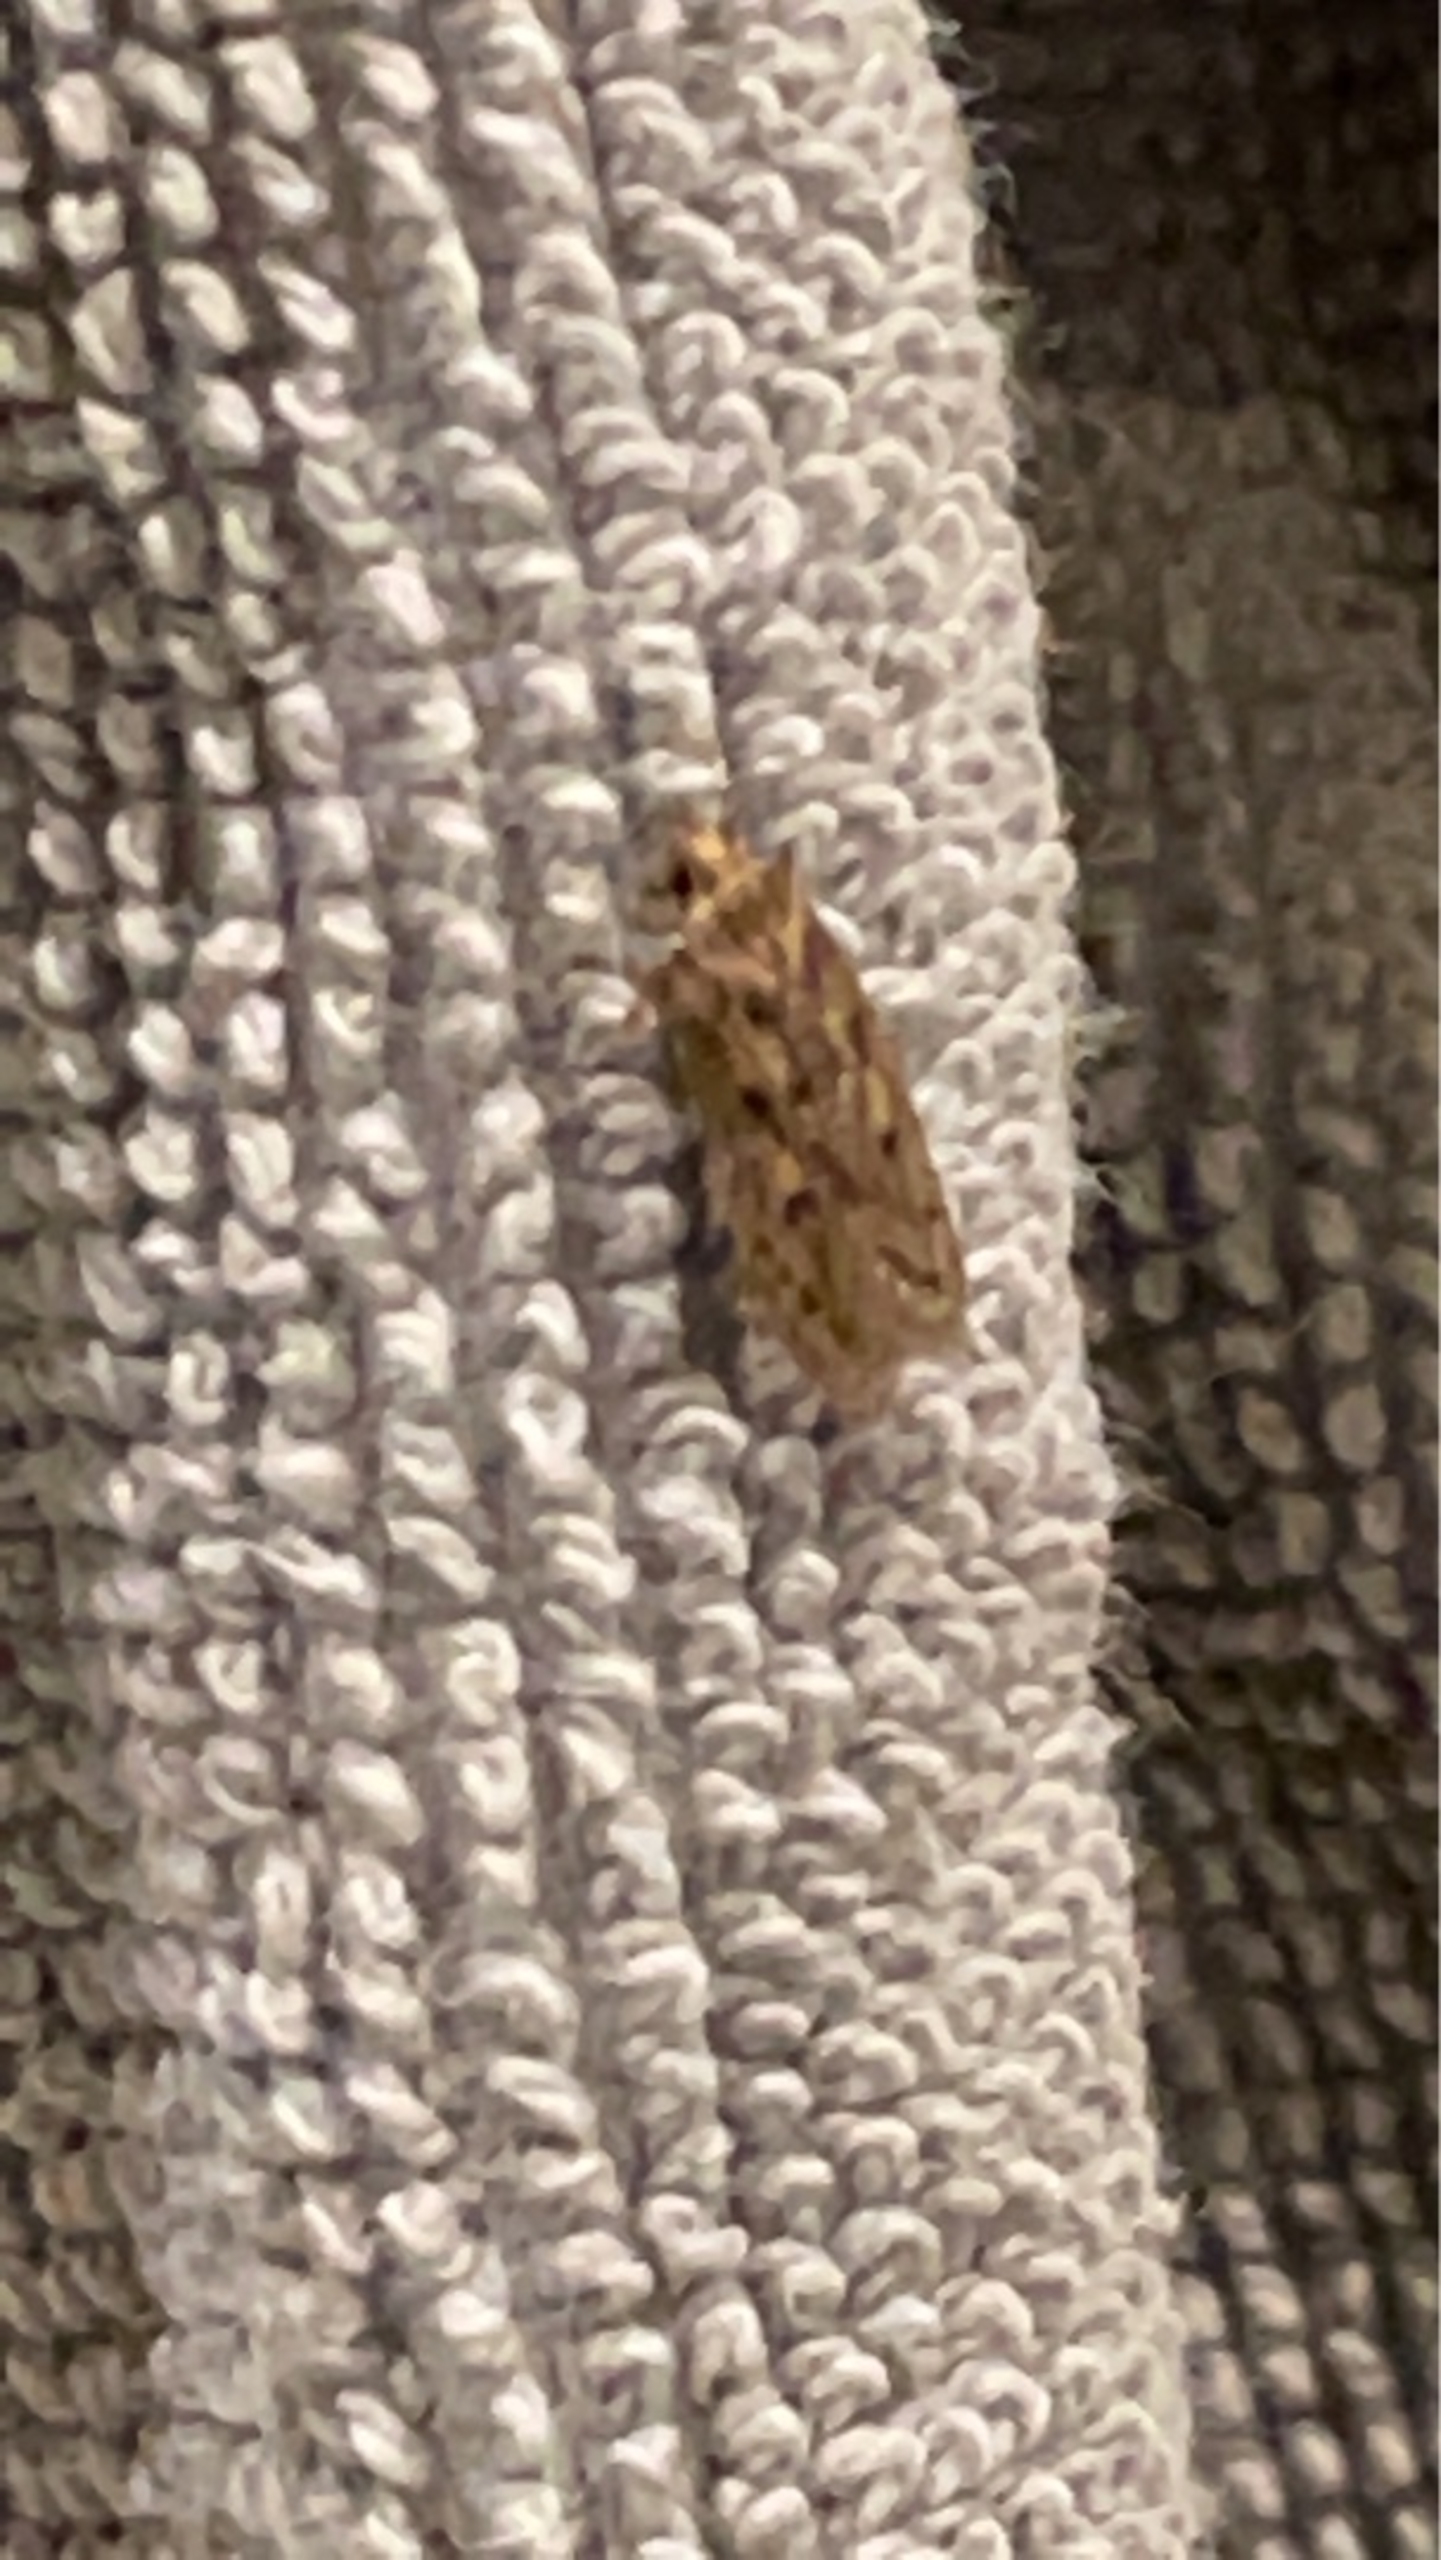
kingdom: Animalia
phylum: Arthropoda
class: Insecta
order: Lepidoptera
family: Oecophoridae
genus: Hofmannophila
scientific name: Hofmannophila pseudospretella
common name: Frømøl
